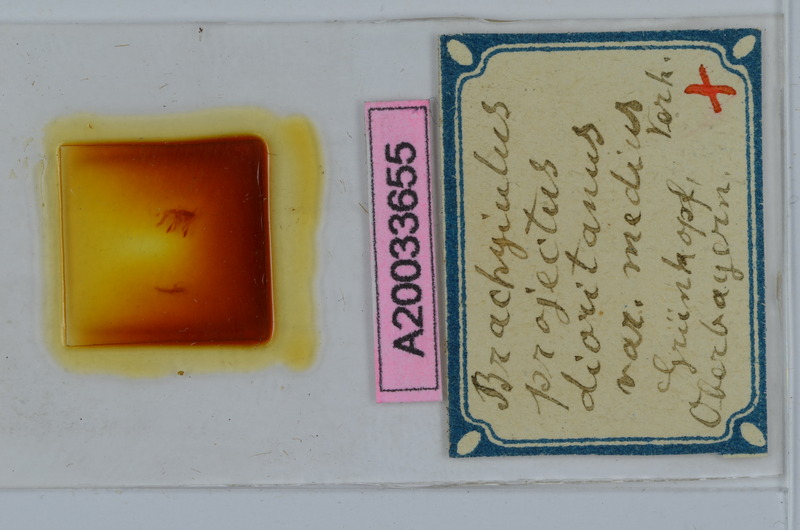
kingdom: Animalia
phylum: Arthropoda
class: Diplopoda
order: Julida
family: Julidae
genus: Brachyiulus
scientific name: Brachyiulus projectus
